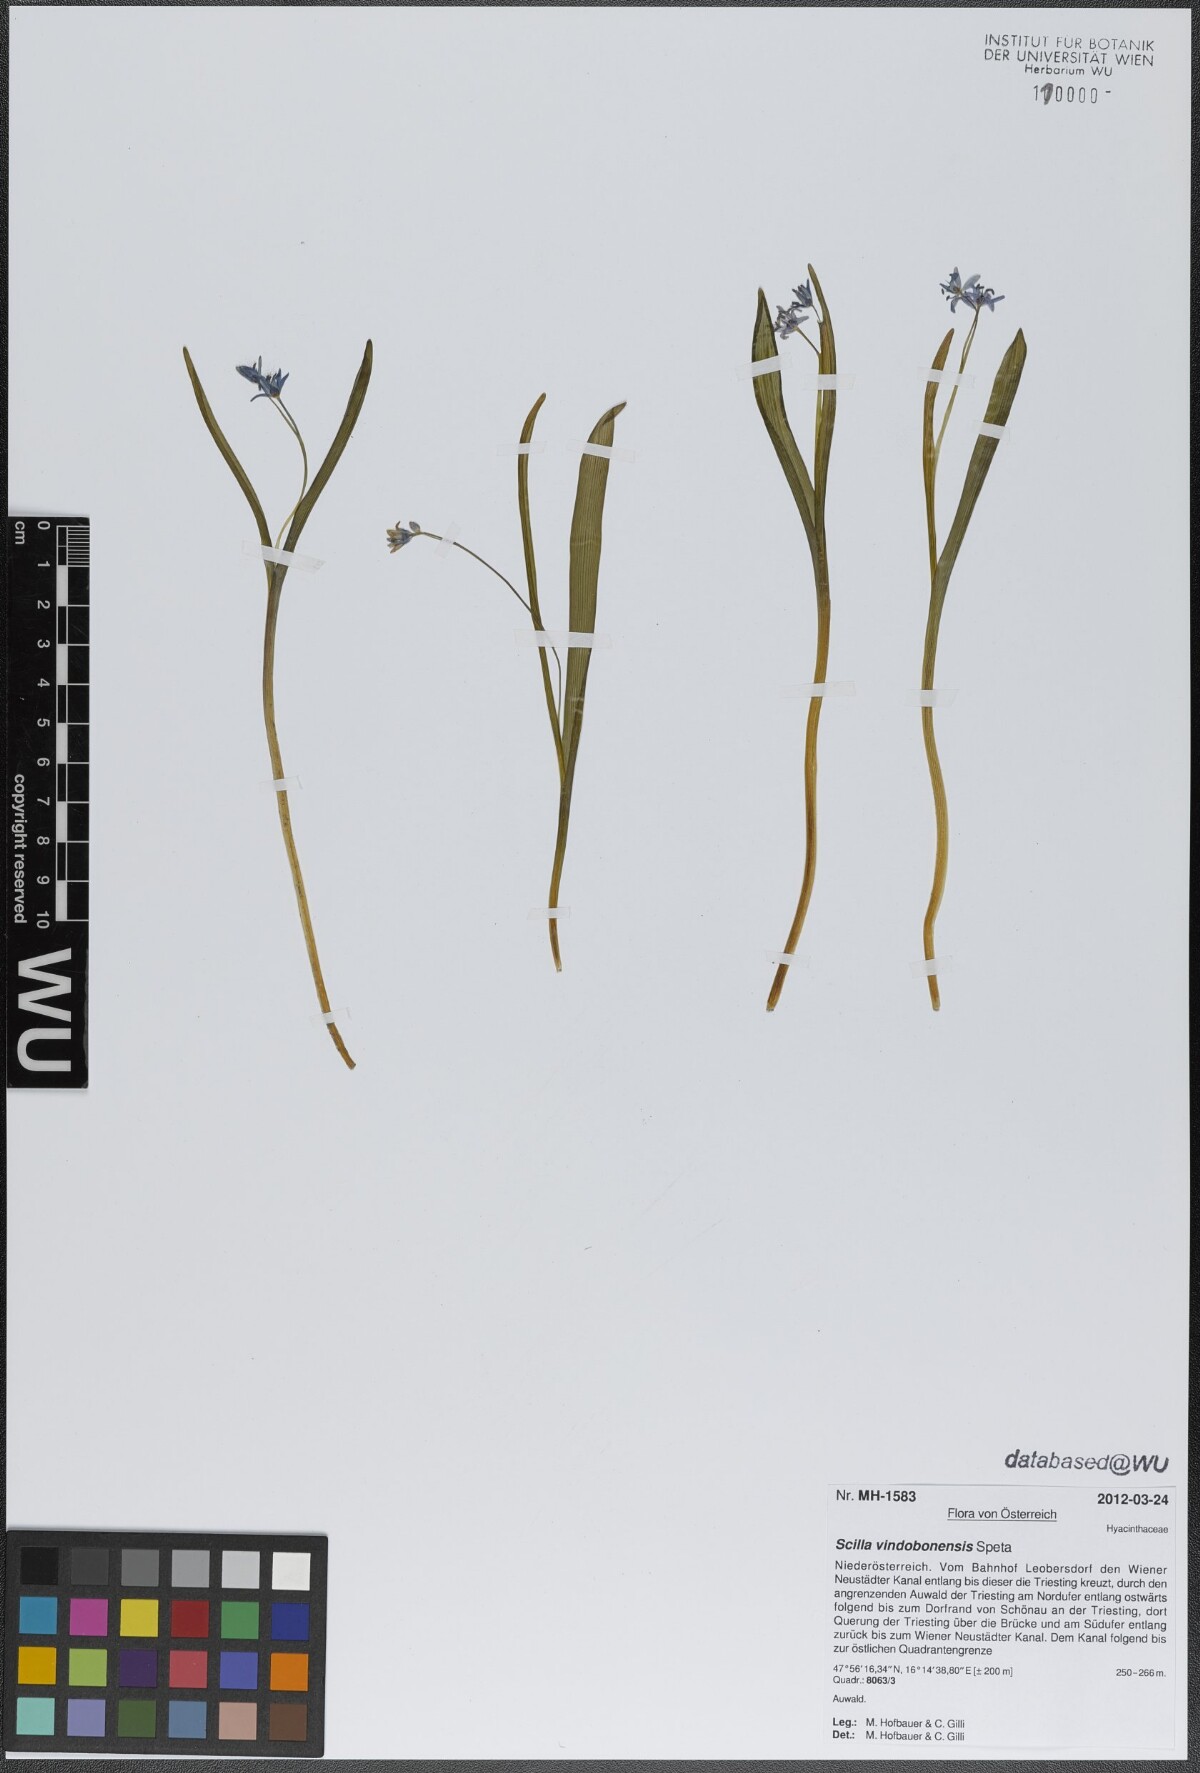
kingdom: Plantae
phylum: Tracheophyta
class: Liliopsida
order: Asparagales
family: Asparagaceae
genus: Scilla
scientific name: Scilla vindobonensis
